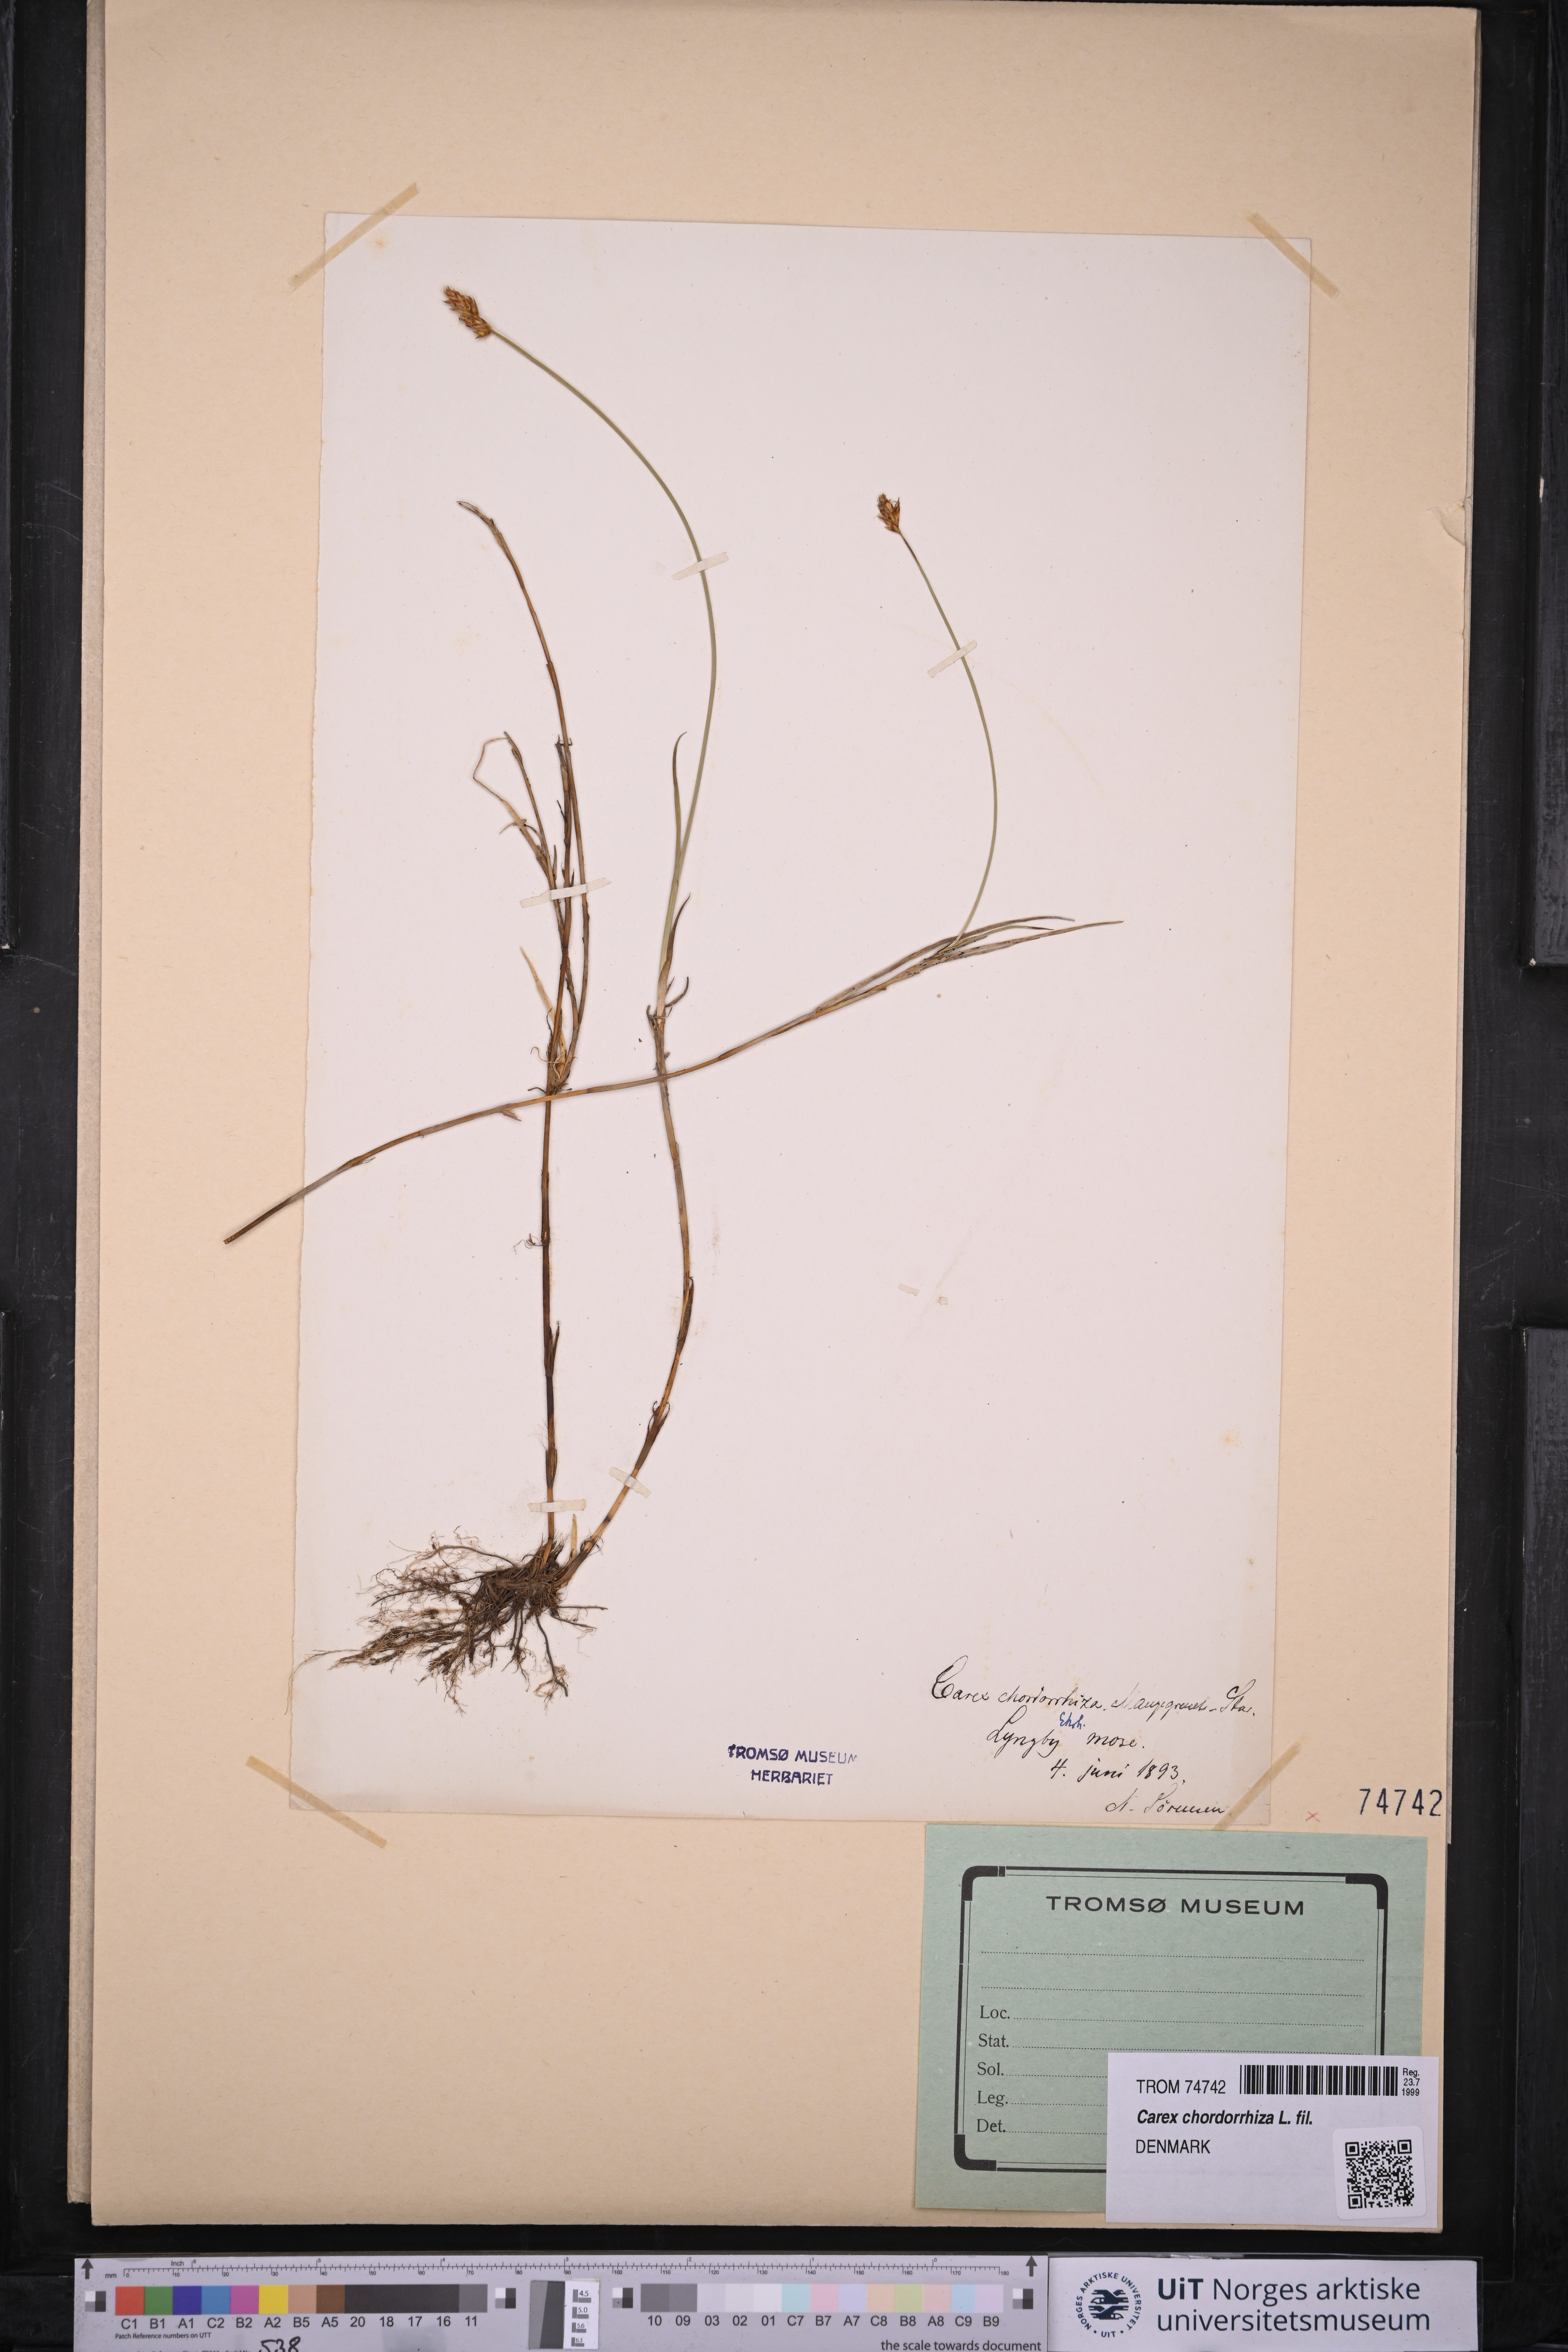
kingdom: Plantae
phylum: Tracheophyta
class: Liliopsida
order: Poales
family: Cyperaceae
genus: Carex
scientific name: Carex chordorrhiza
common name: String sedge
